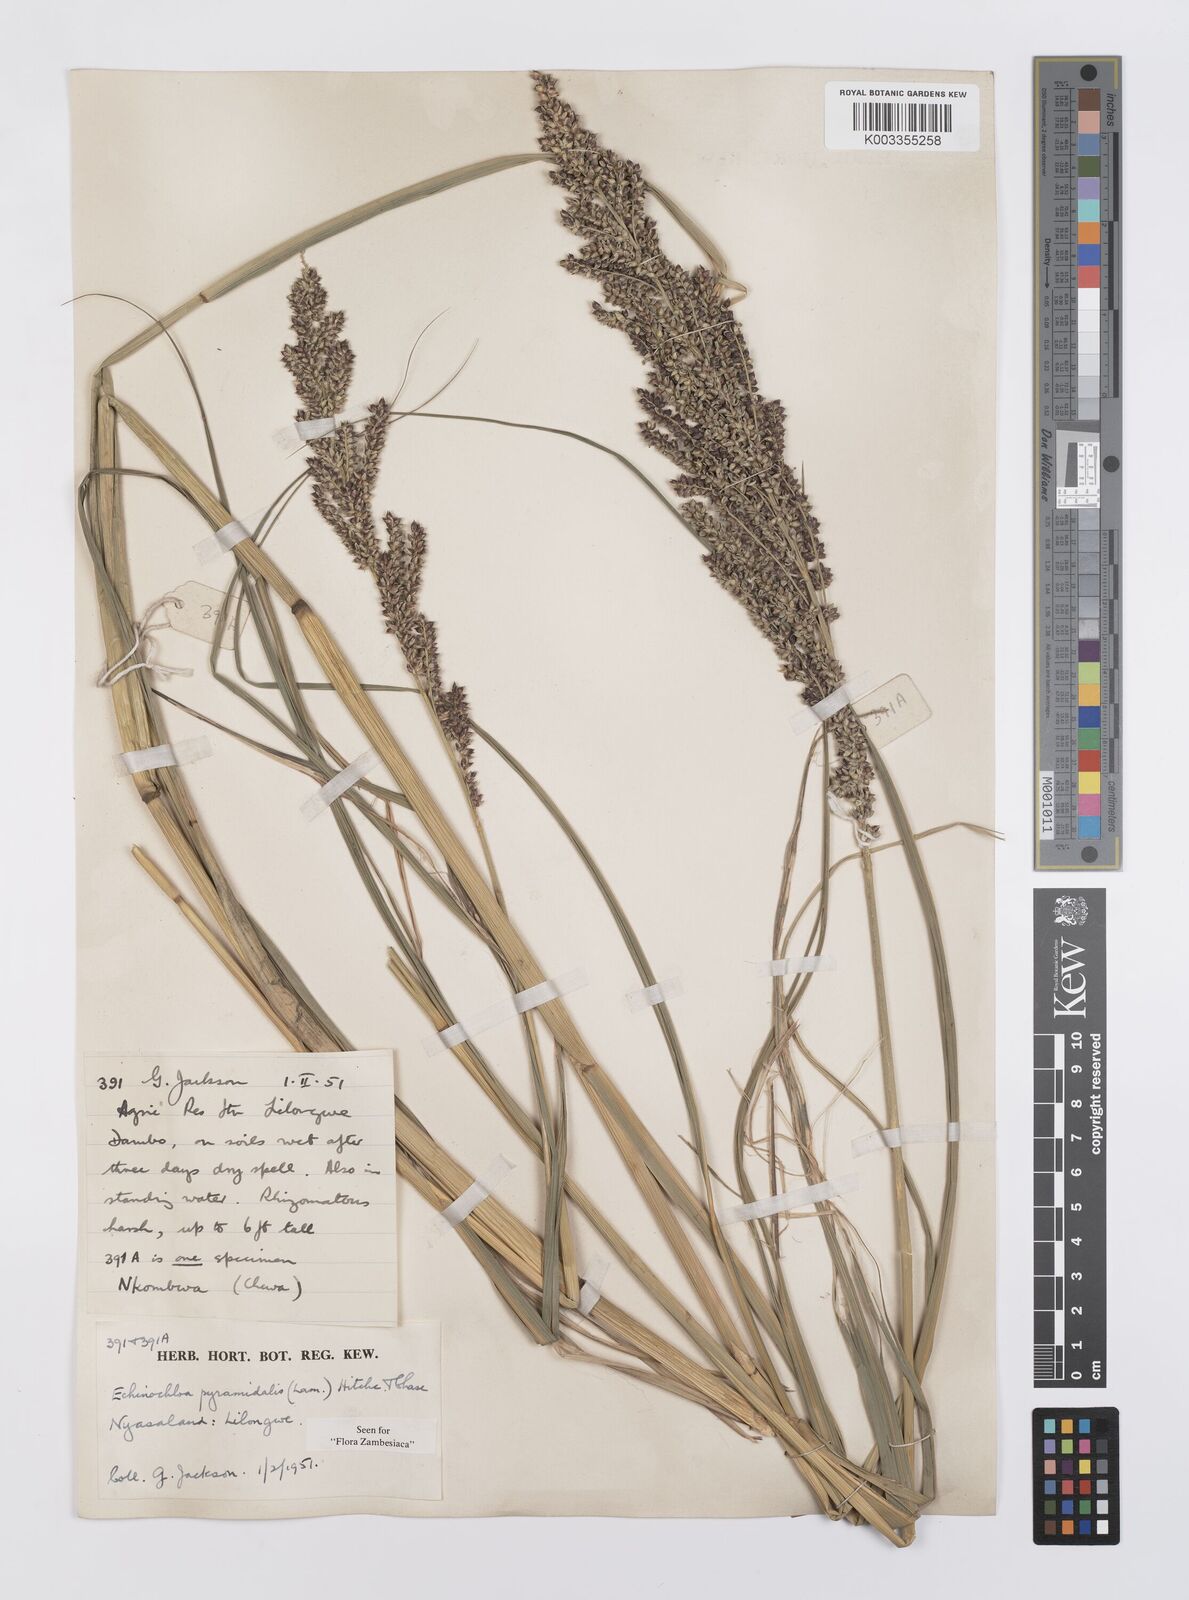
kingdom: Plantae
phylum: Tracheophyta
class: Liliopsida
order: Poales
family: Poaceae
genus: Echinochloa
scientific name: Echinochloa pyramidalis
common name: Antelope grass
